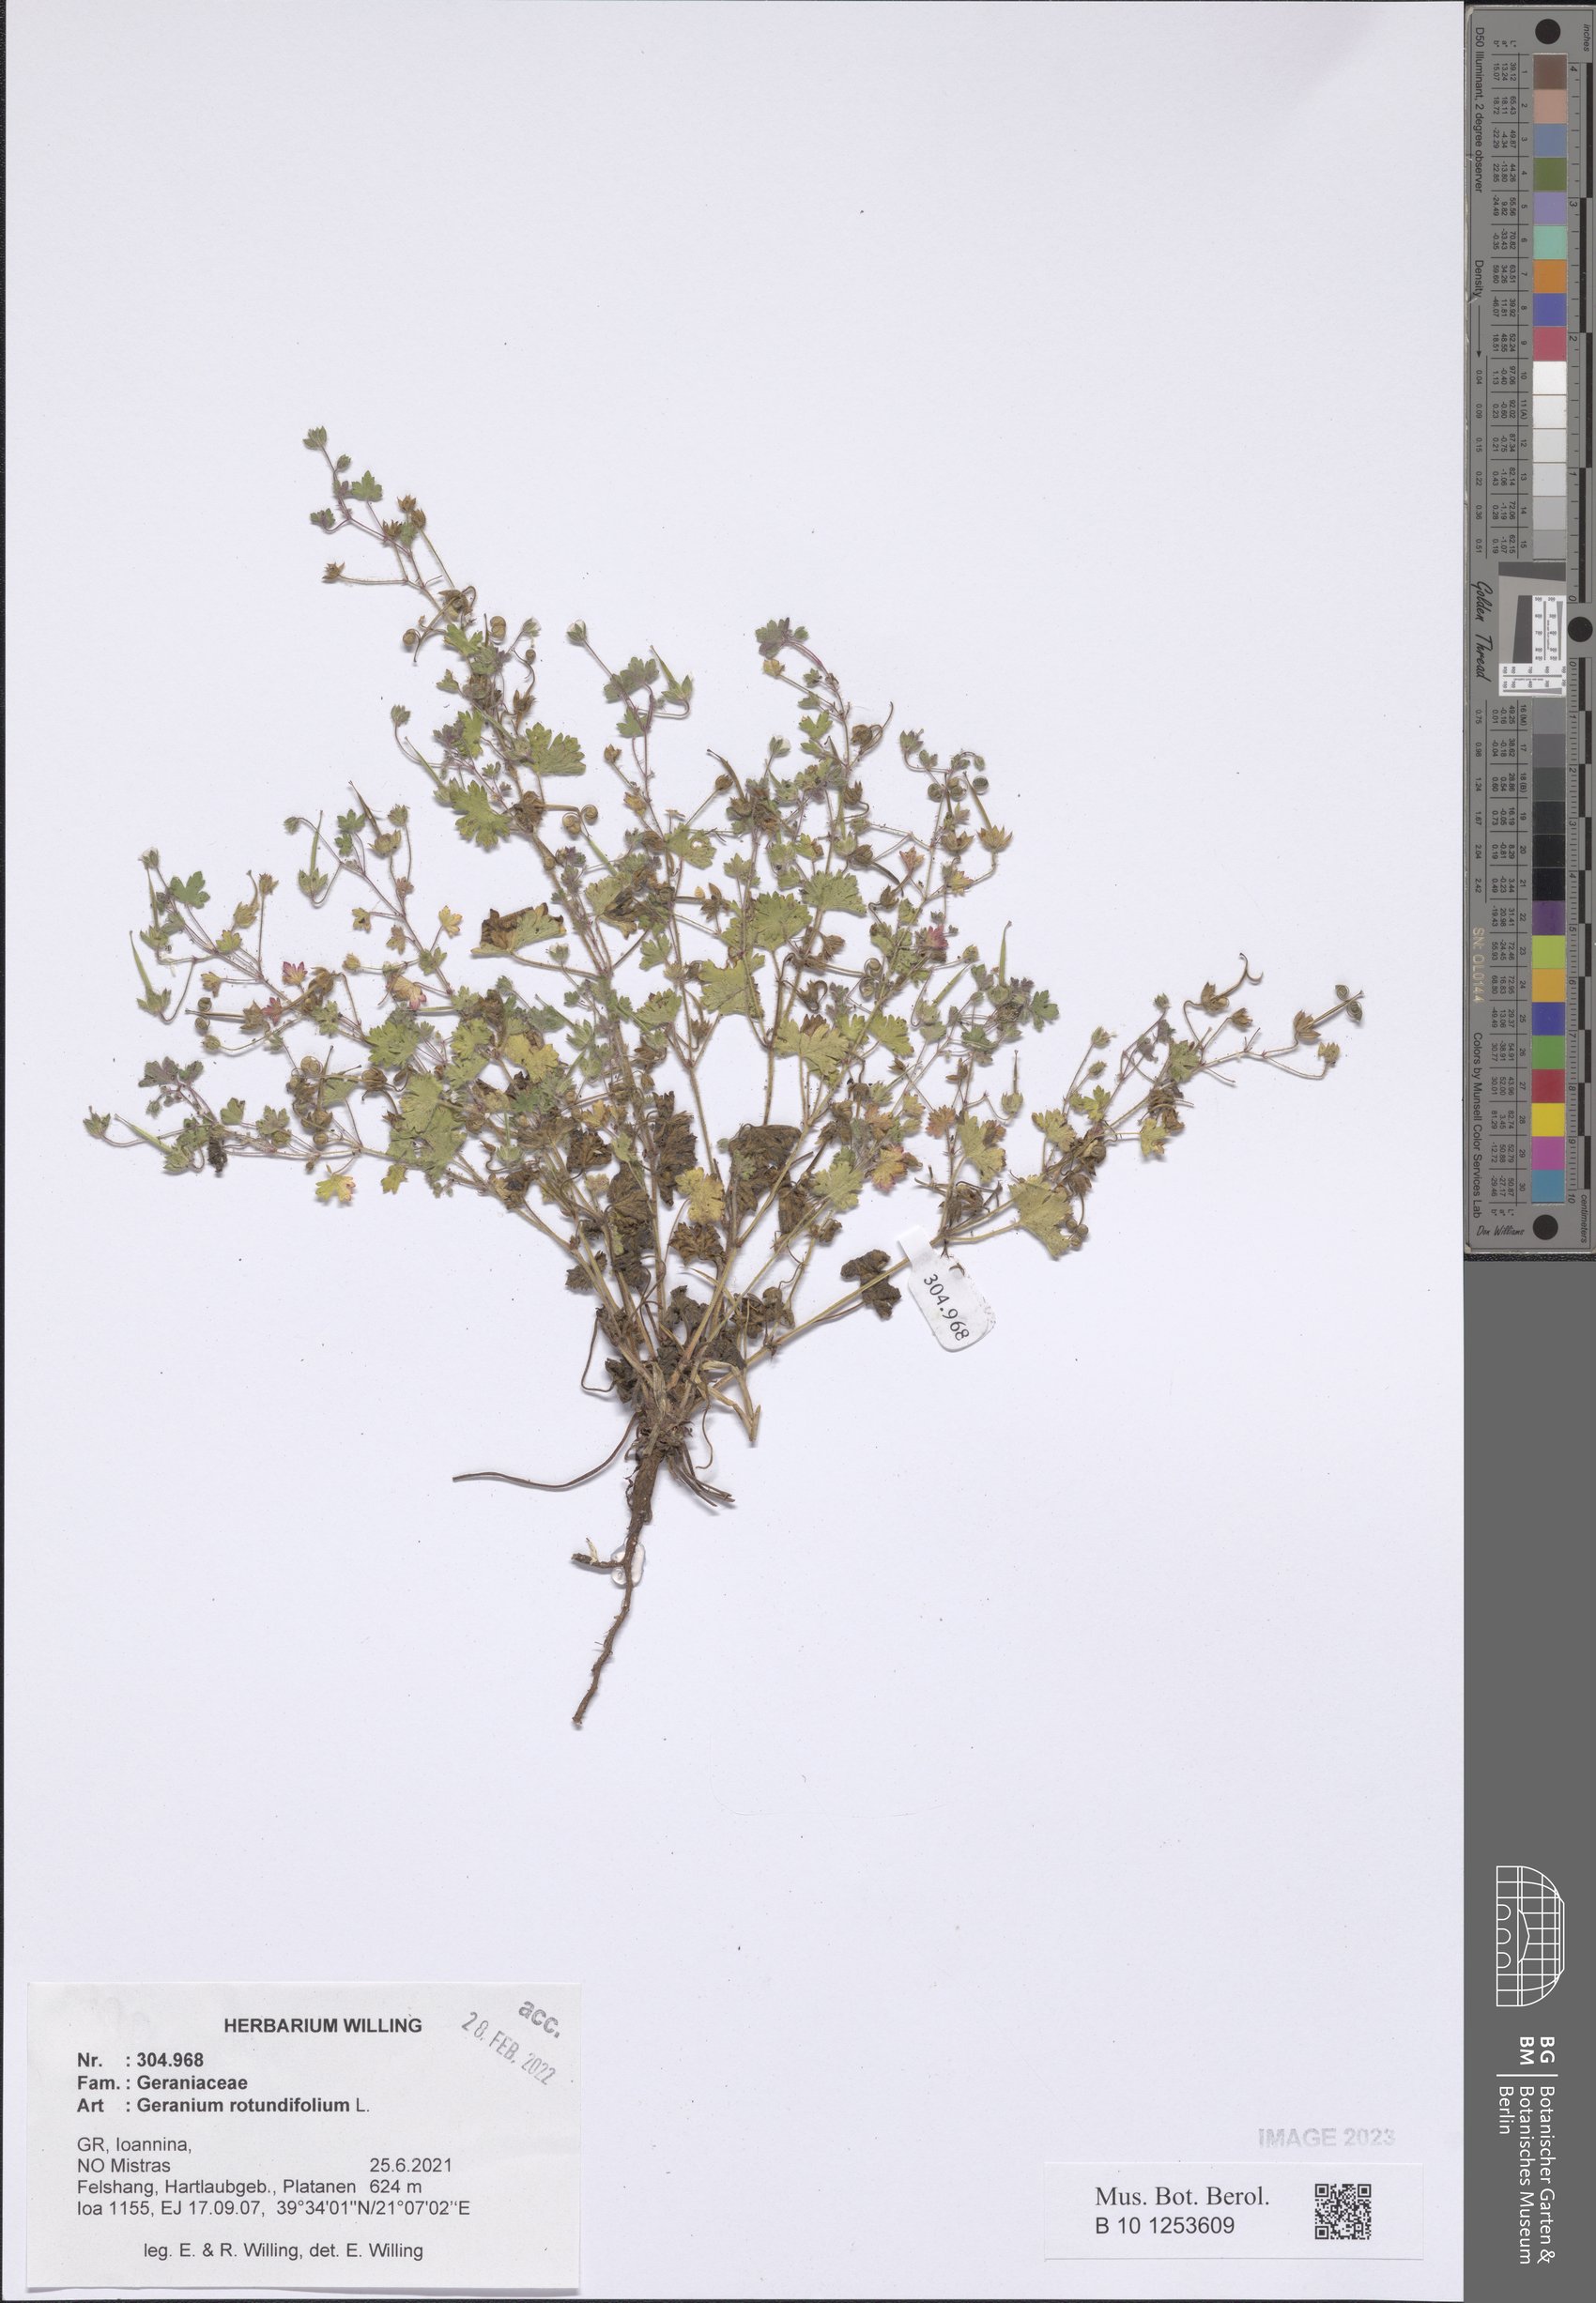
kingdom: Plantae
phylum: Tracheophyta
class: Magnoliopsida
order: Geraniales
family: Geraniaceae
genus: Geranium
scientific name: Geranium rotundifolium
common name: Round-leaved crane's-bill
